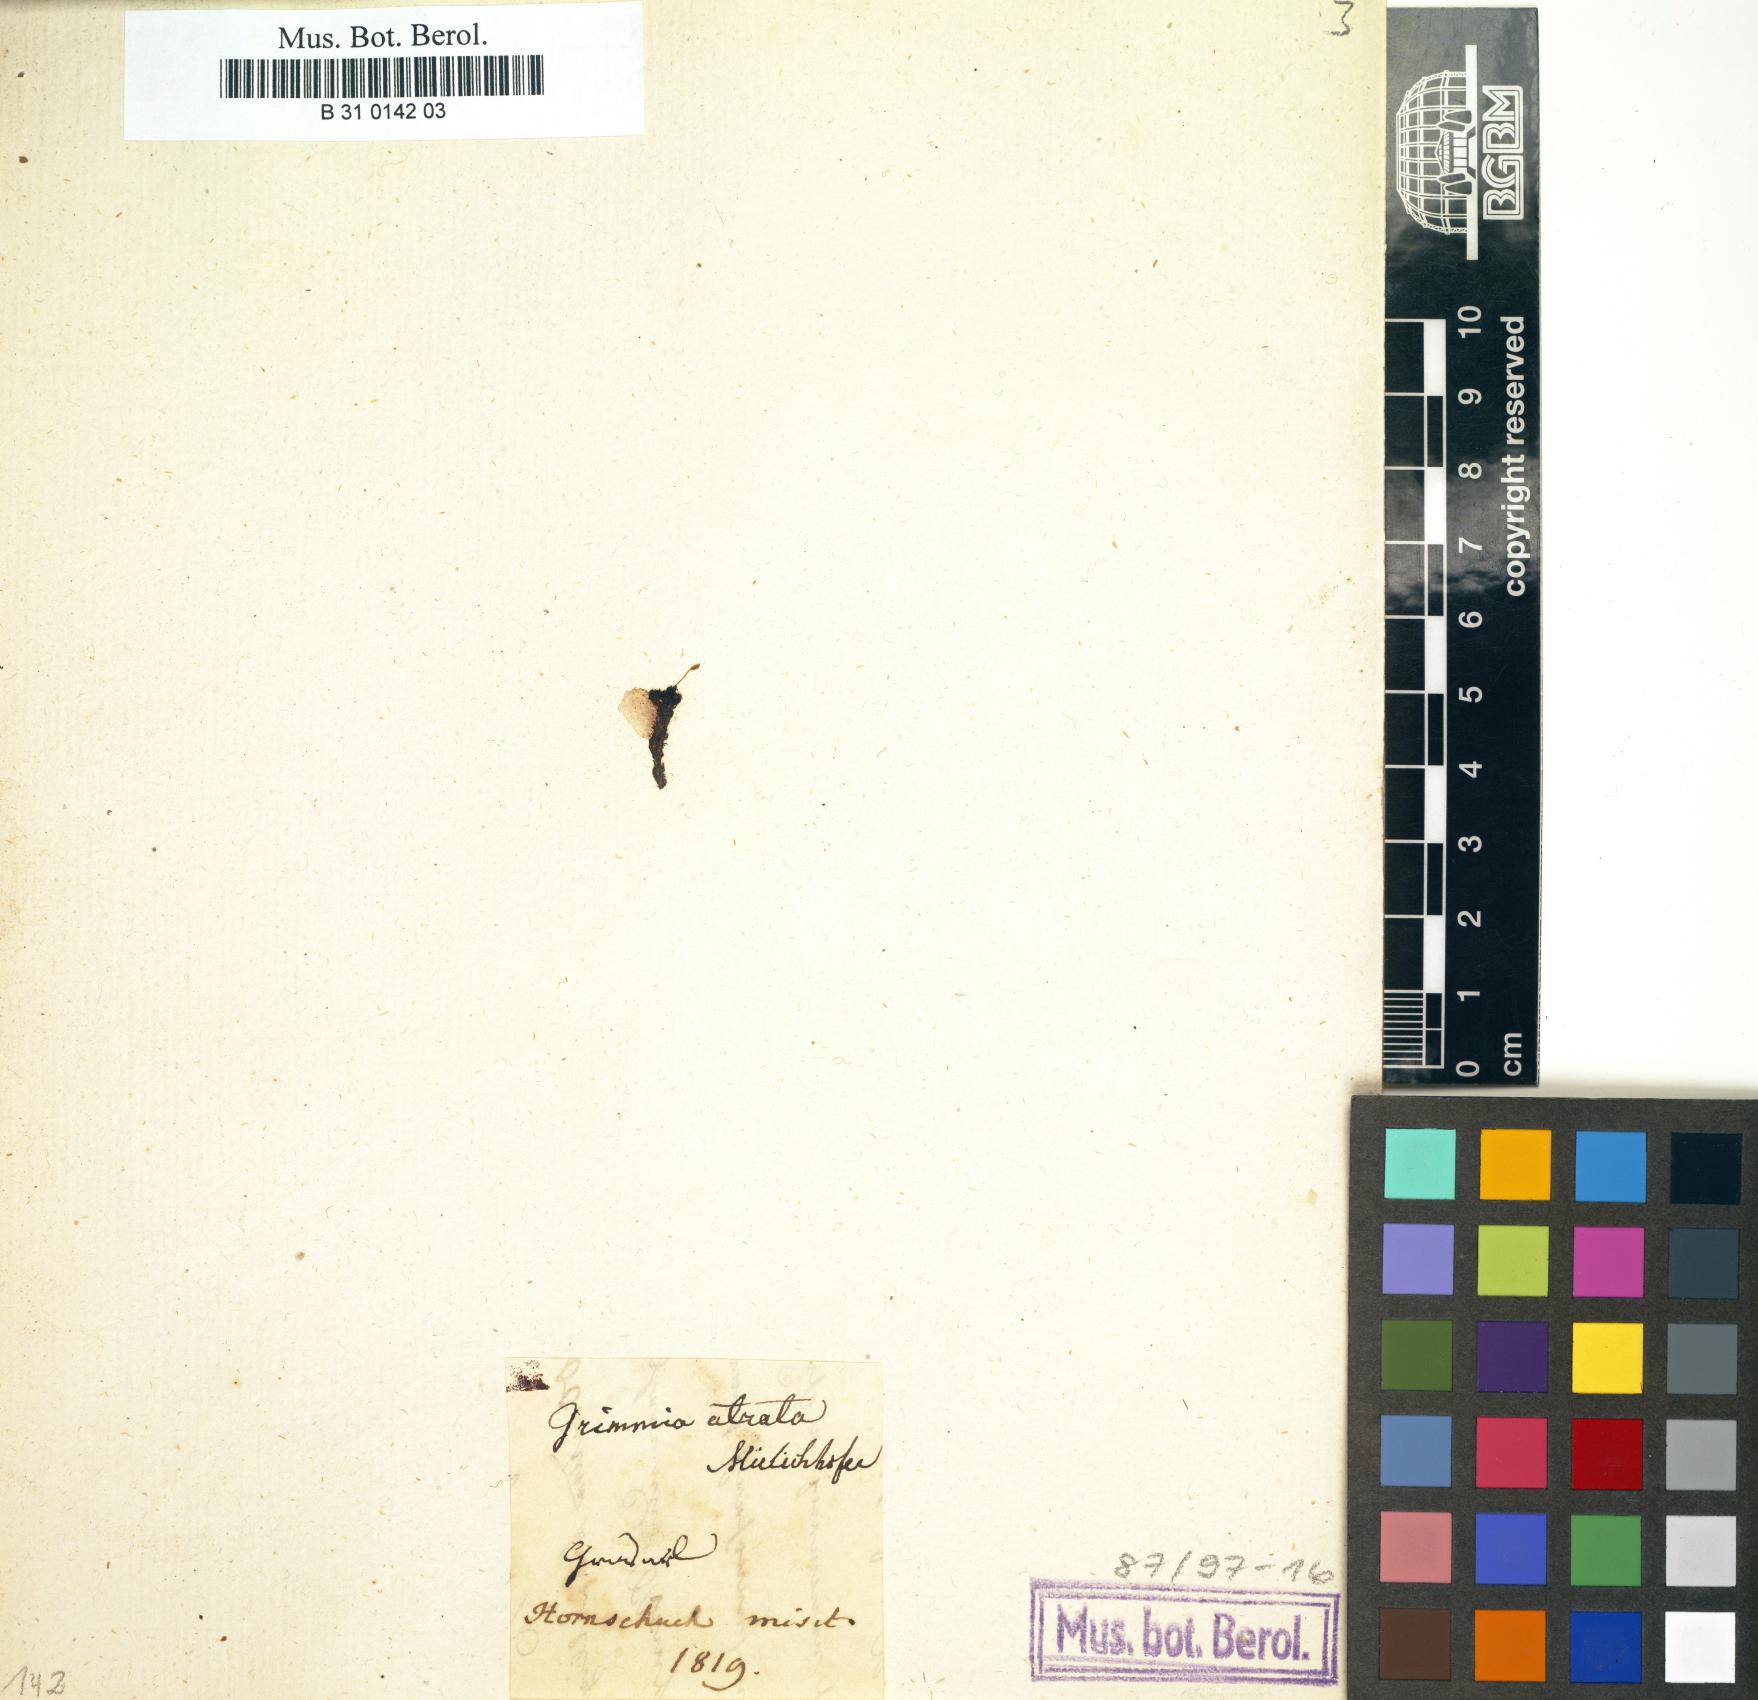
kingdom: Plantae
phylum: Bryophyta
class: Bryopsida
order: Grimmiales
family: Grimmiaceae
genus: Grimmia
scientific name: Grimmia atrata
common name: Copper grimmia
